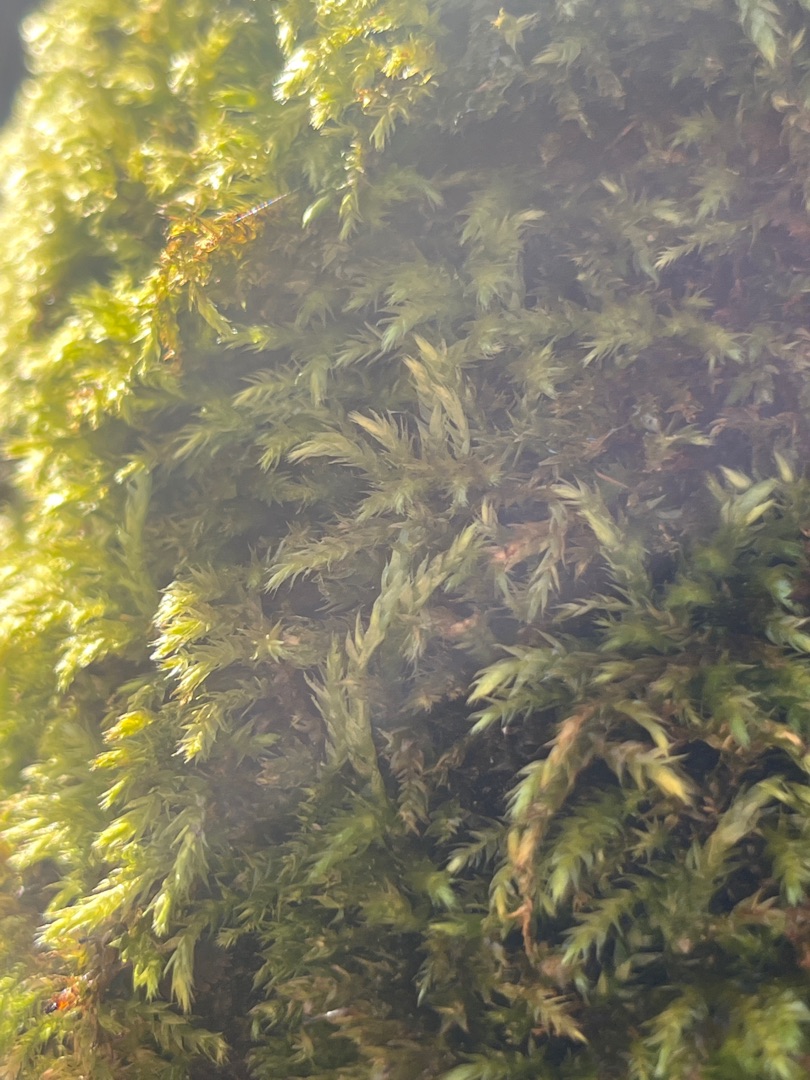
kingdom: Plantae
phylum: Bryophyta
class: Bryopsida
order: Hypnales
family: Brachytheciaceae
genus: Brachythecium
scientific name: Brachythecium rutabulum
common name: Almindelig kortkapsel
